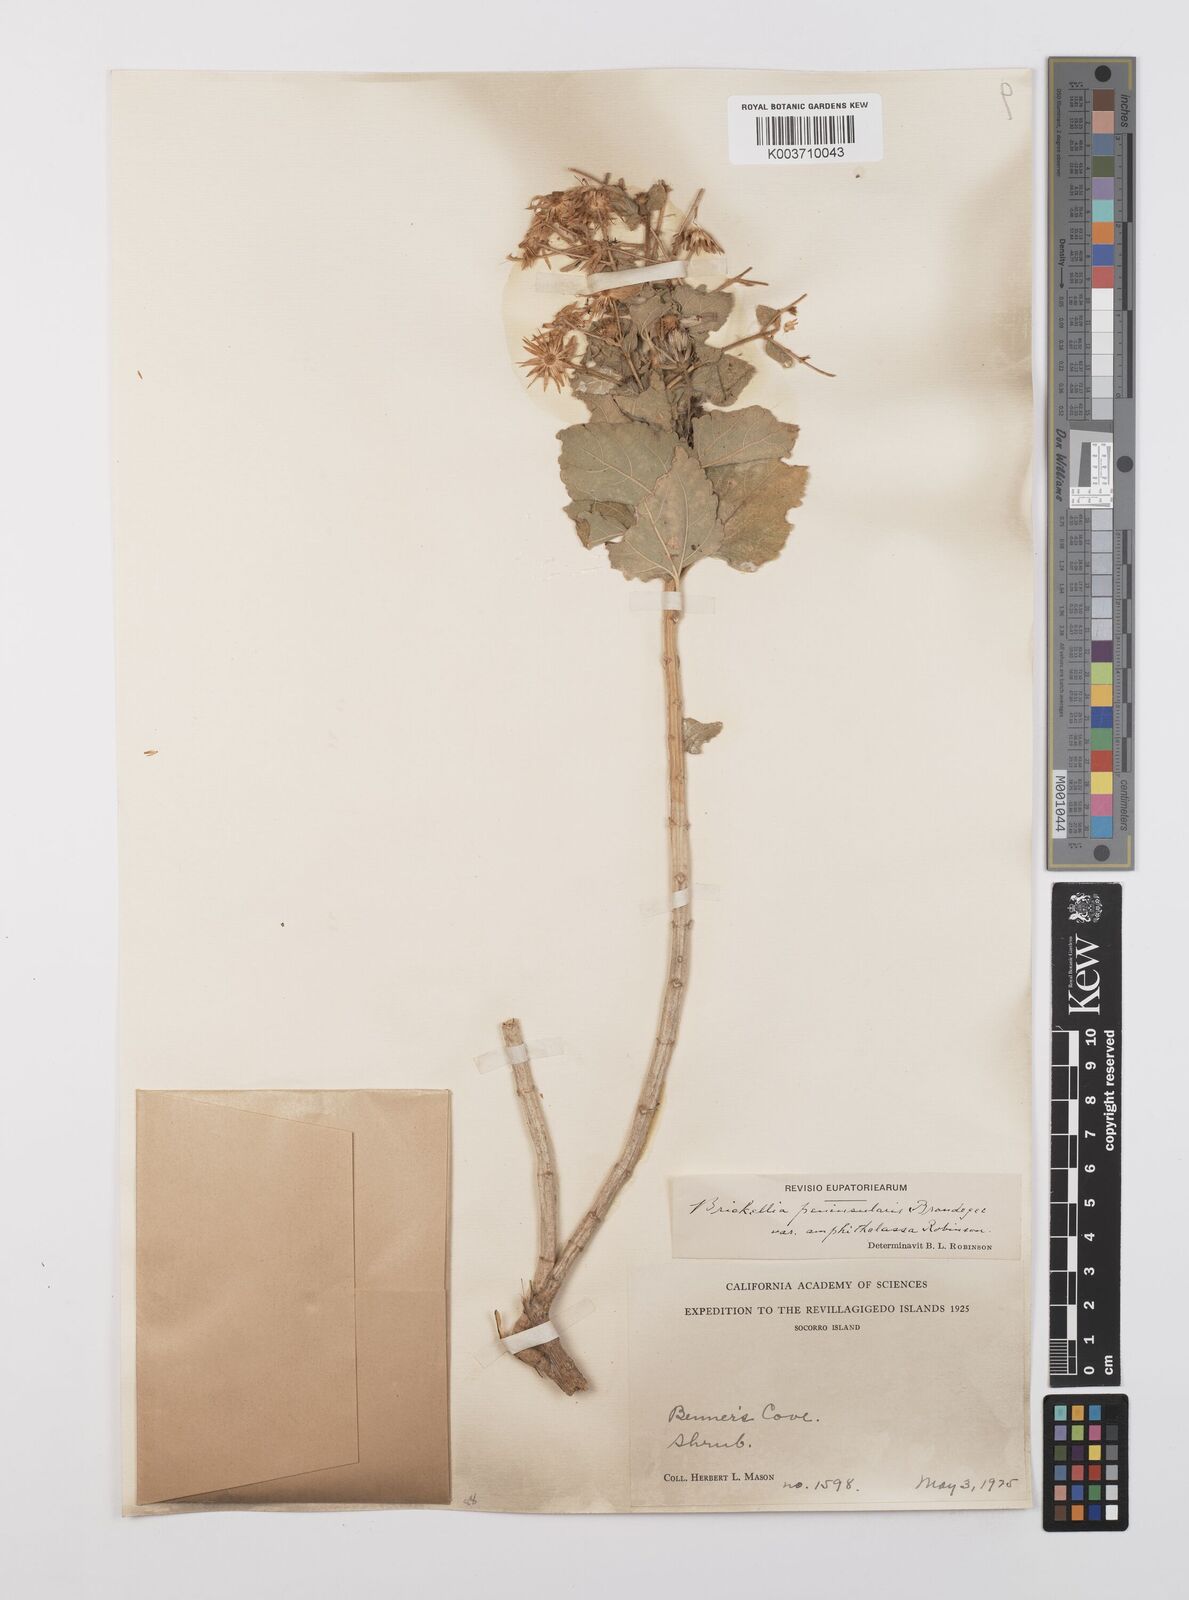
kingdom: Plantae
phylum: Tracheophyta
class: Magnoliopsida
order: Asterales
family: Asteraceae
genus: Brickellia
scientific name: Brickellia peninsularis
